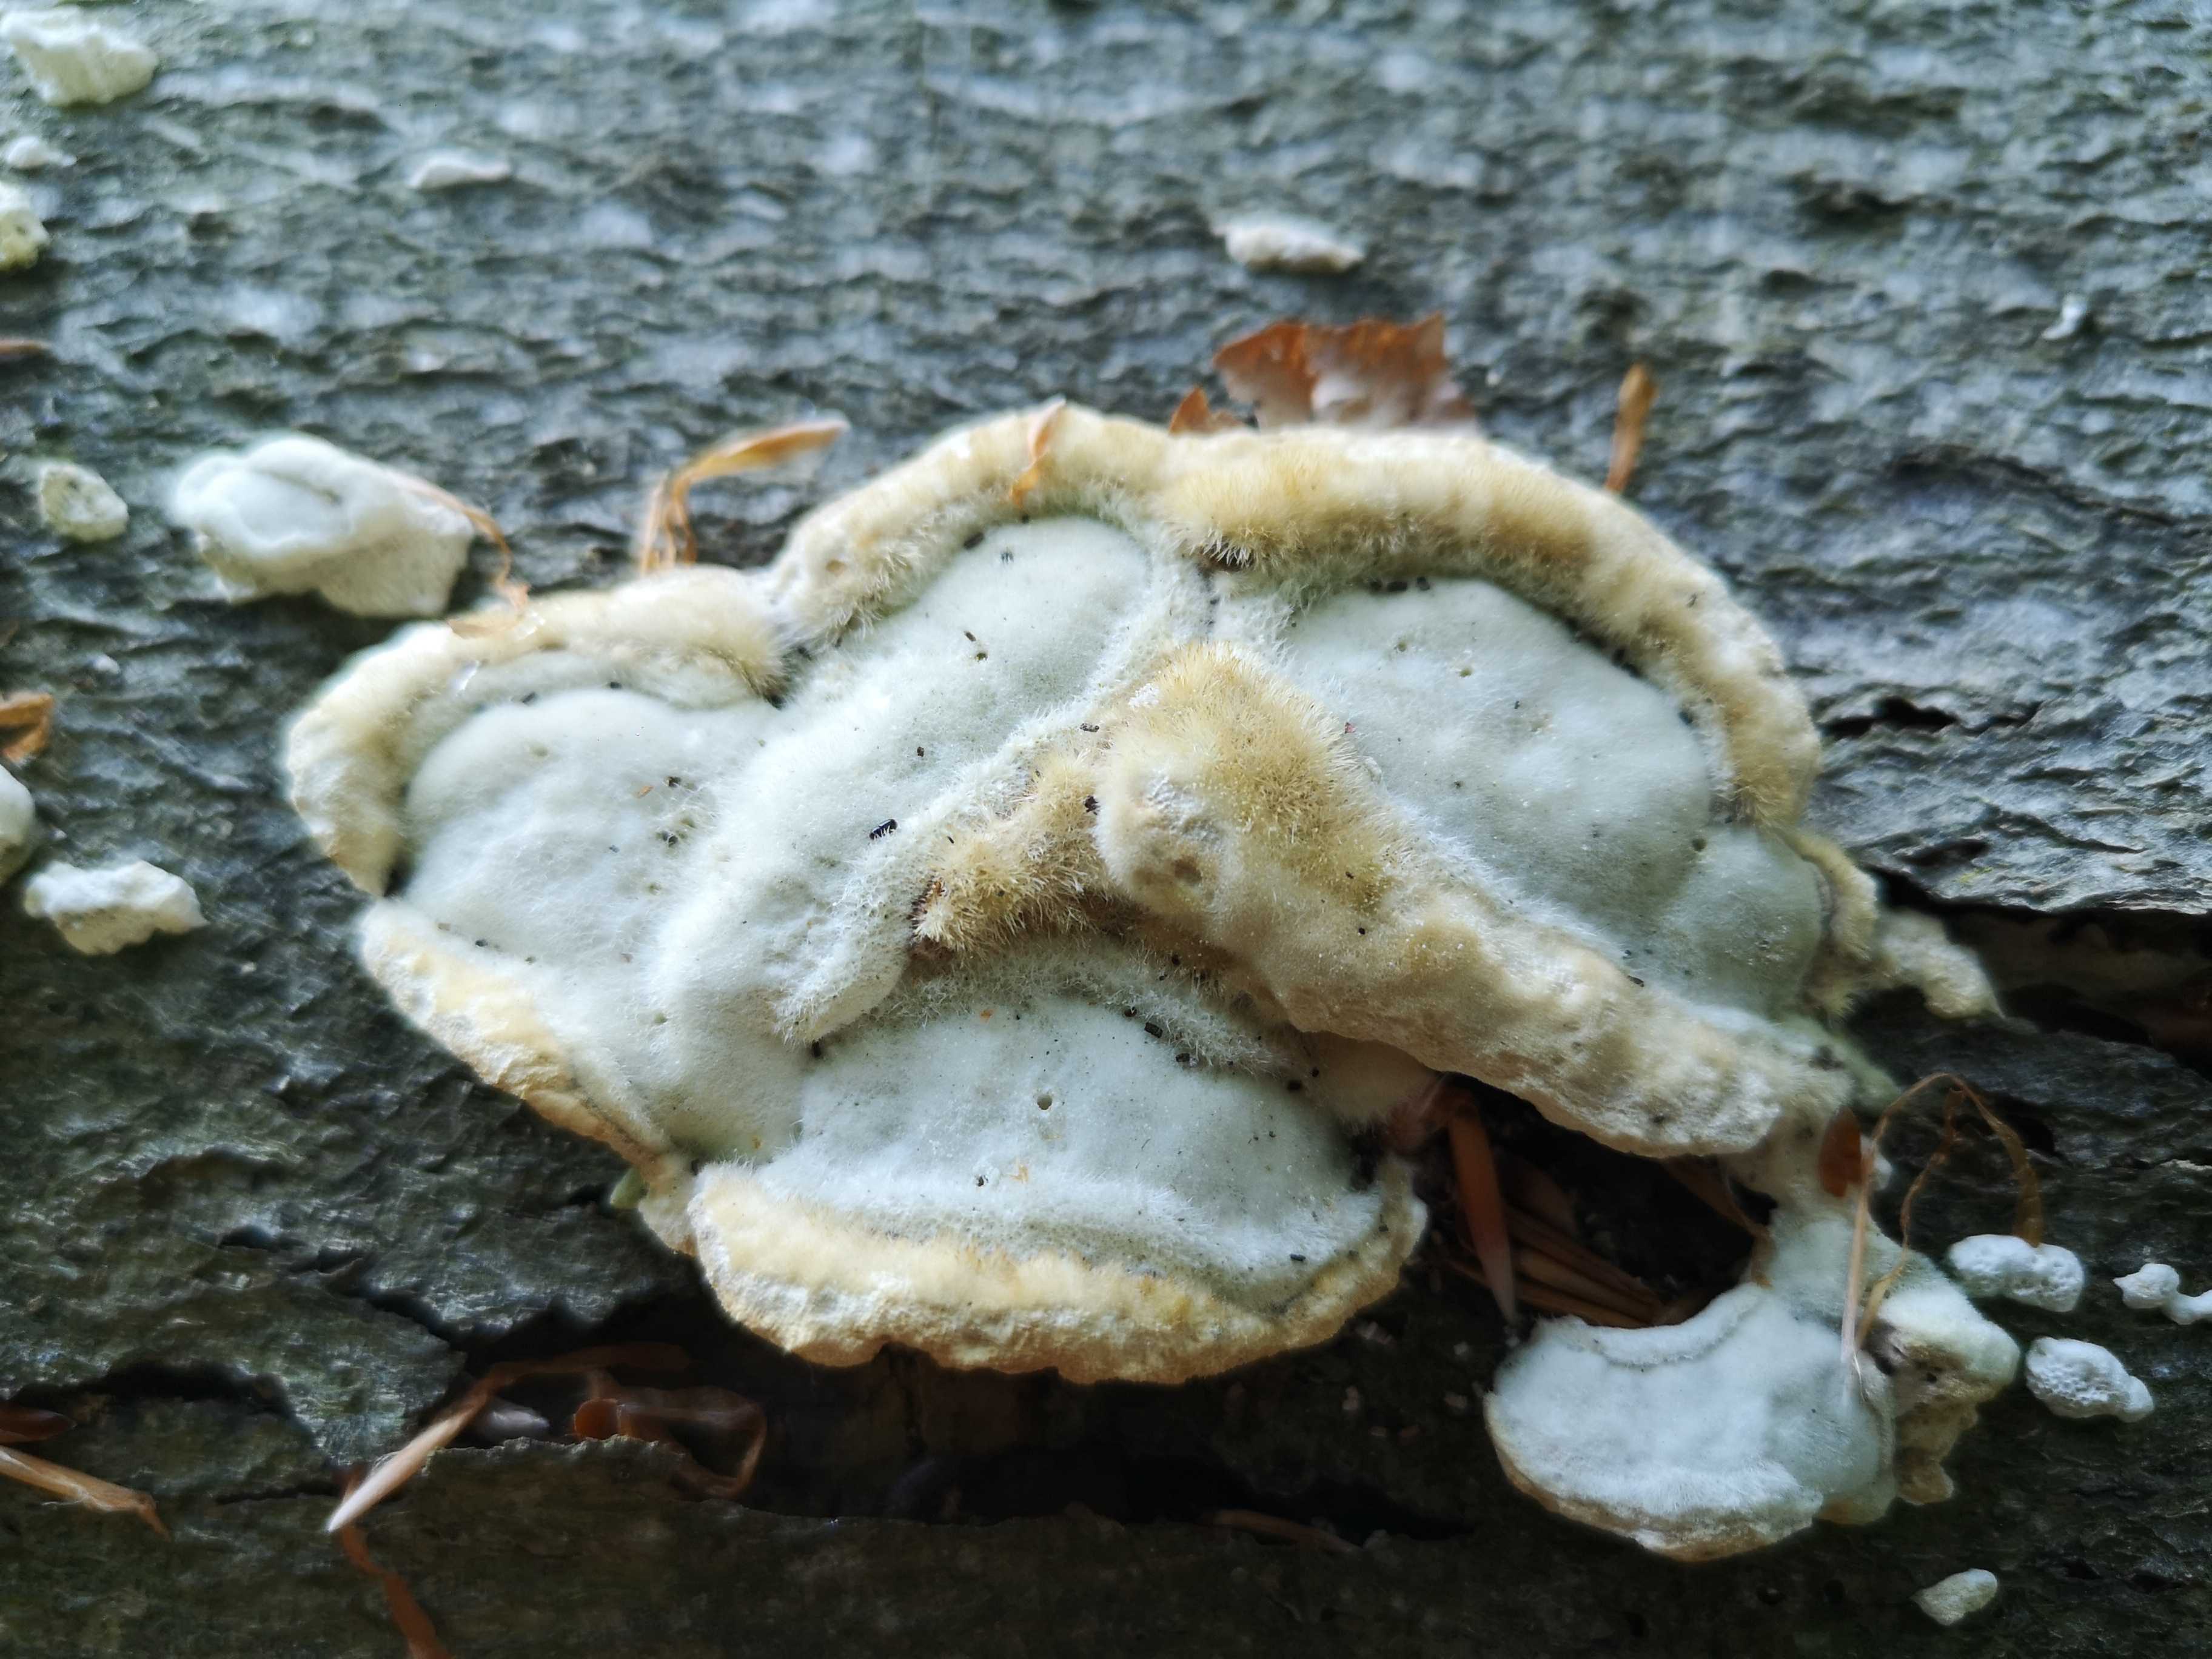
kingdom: Fungi
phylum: Basidiomycota
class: Agaricomycetes
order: Polyporales
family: Polyporaceae
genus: Trametes
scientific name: Trametes hirsuta
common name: håret læderporesvamp
